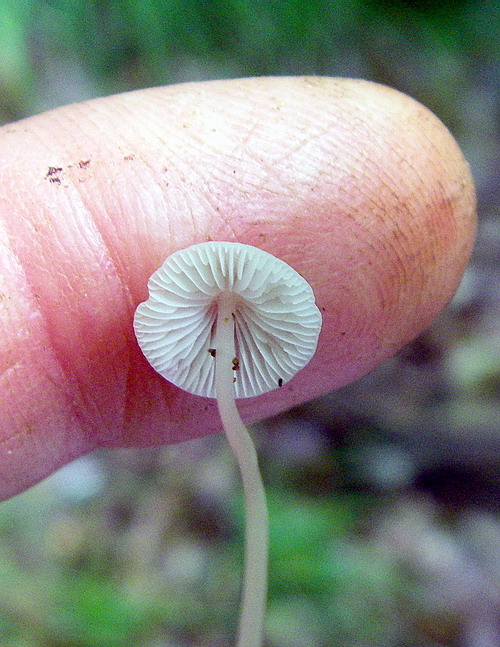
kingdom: Fungi
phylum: Basidiomycota
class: Agaricomycetes
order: Agaricales
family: Mycenaceae
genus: Mycena
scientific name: Mycena stylobates
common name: fureskivet huesvamp
